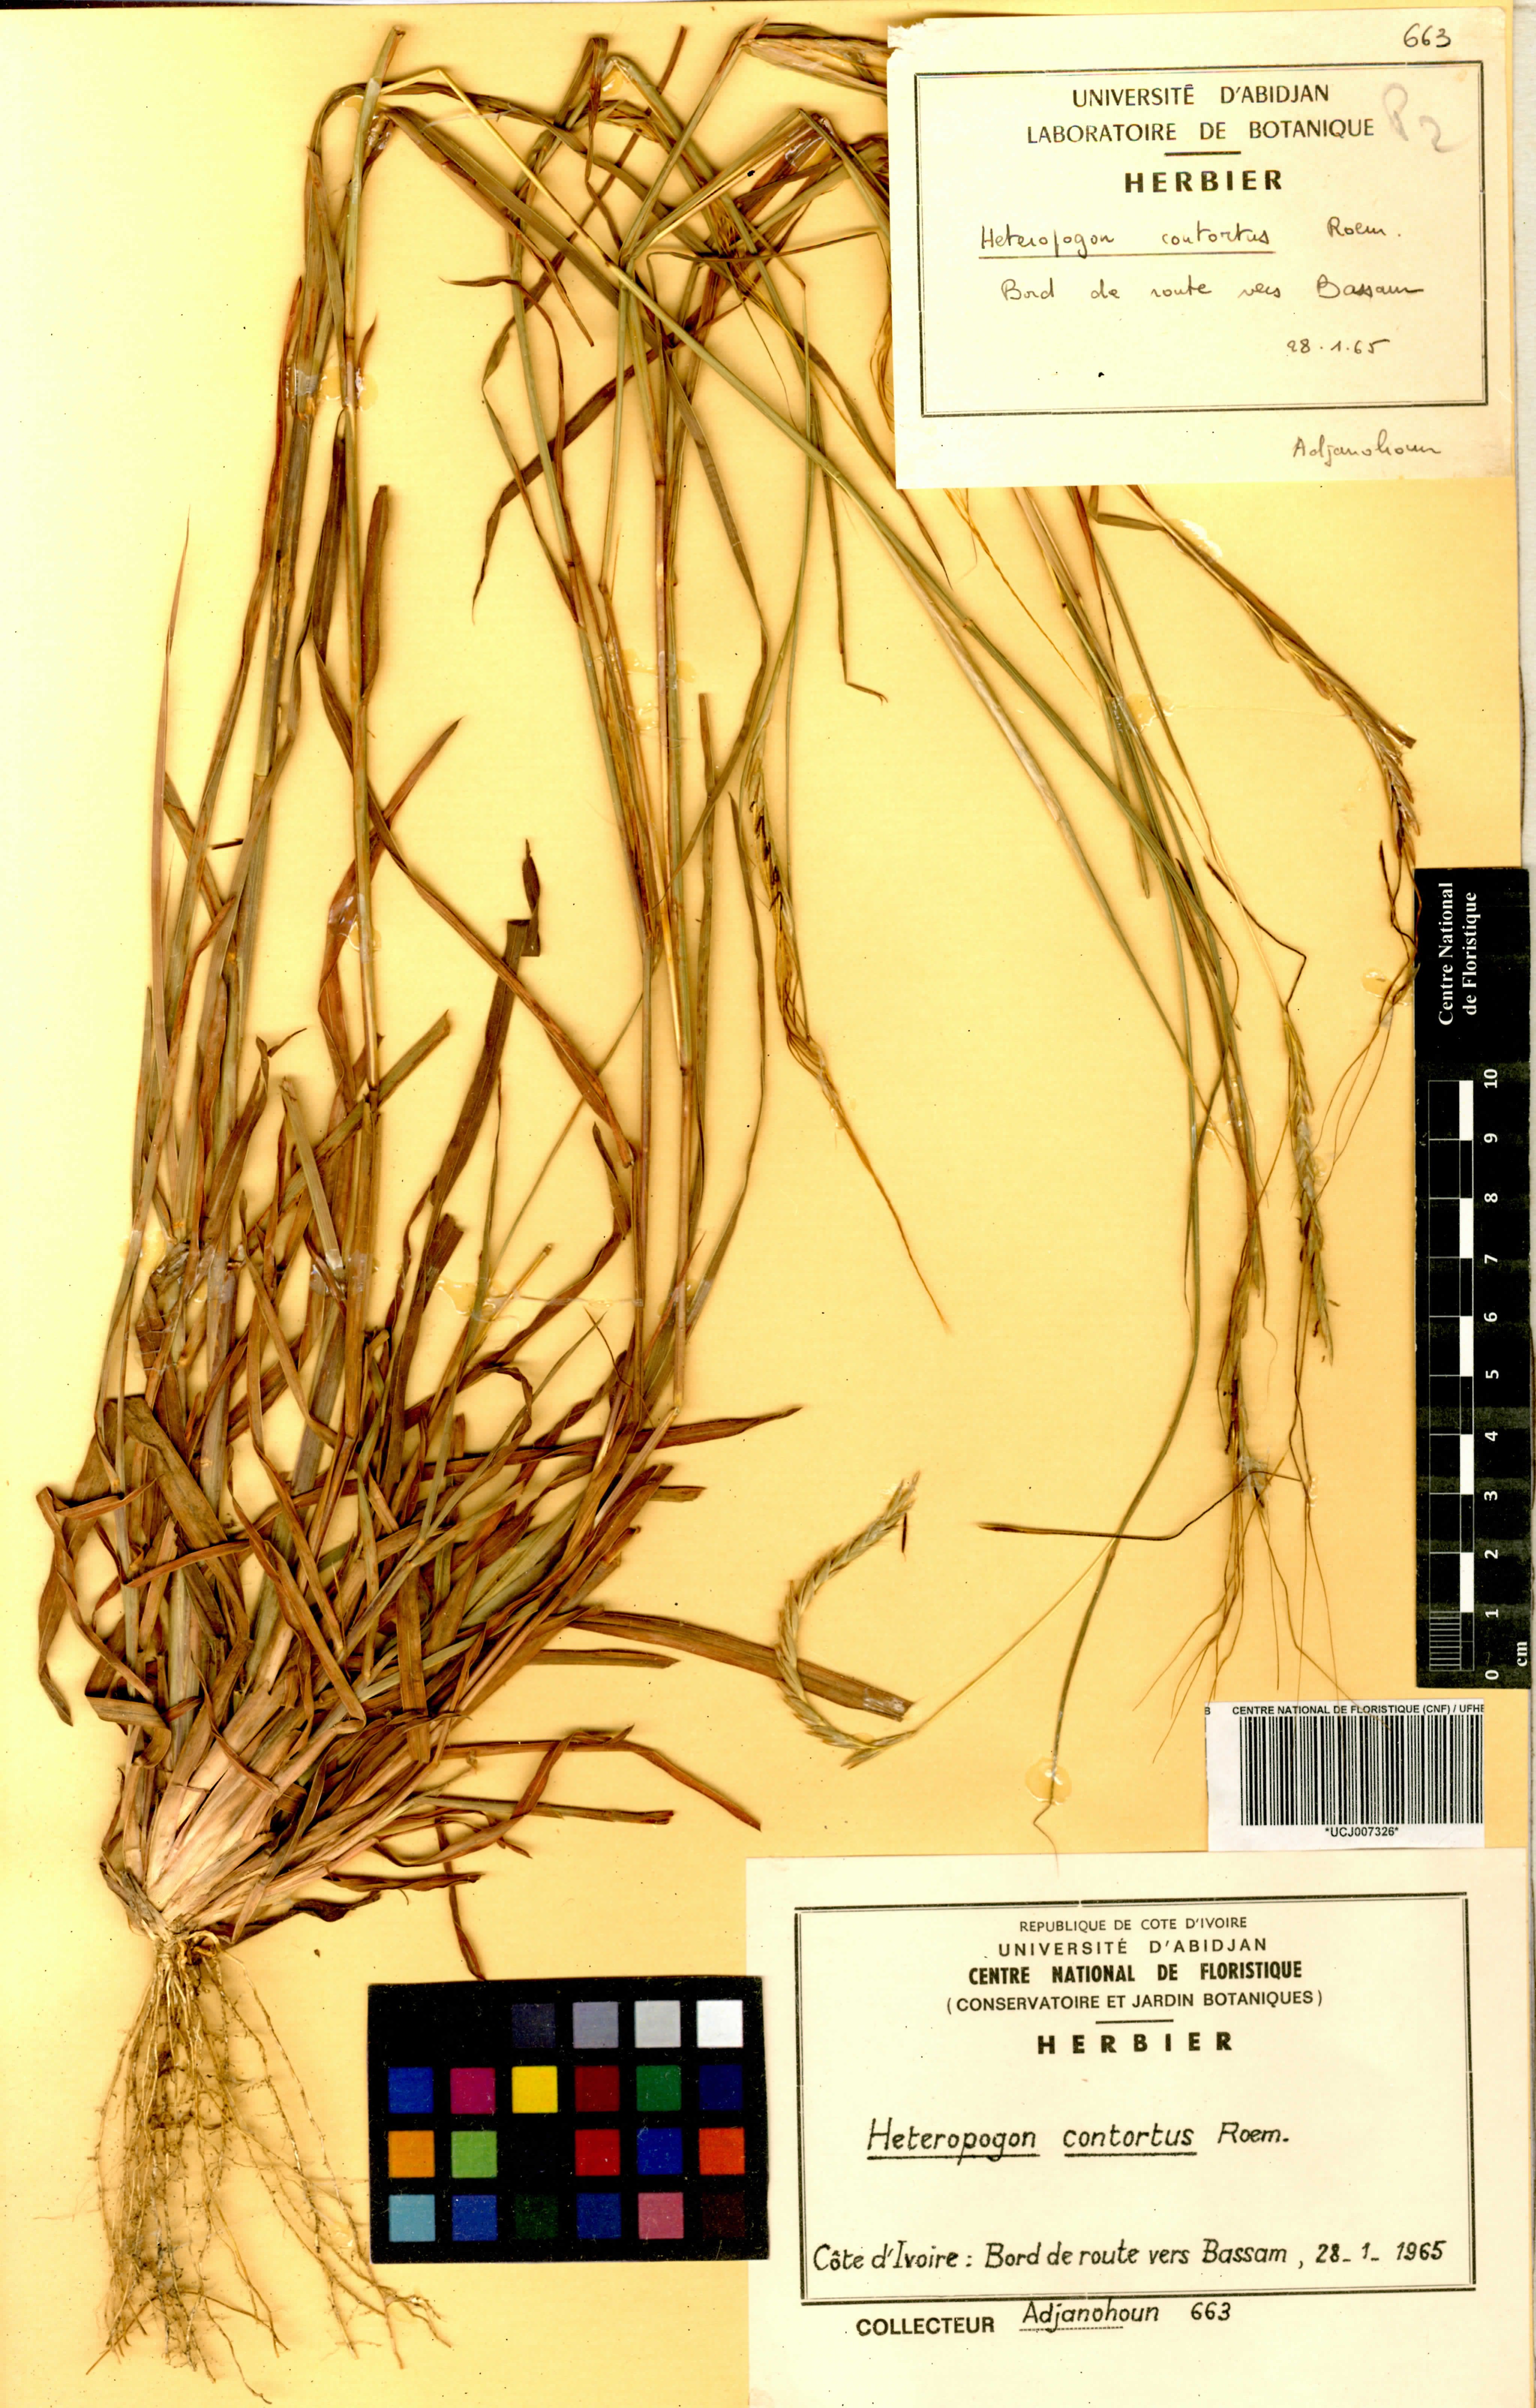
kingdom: Plantae
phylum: Tracheophyta
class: Liliopsida
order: Poales
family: Poaceae
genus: Heteropogon
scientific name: Heteropogon contortus
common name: Tanglehead
